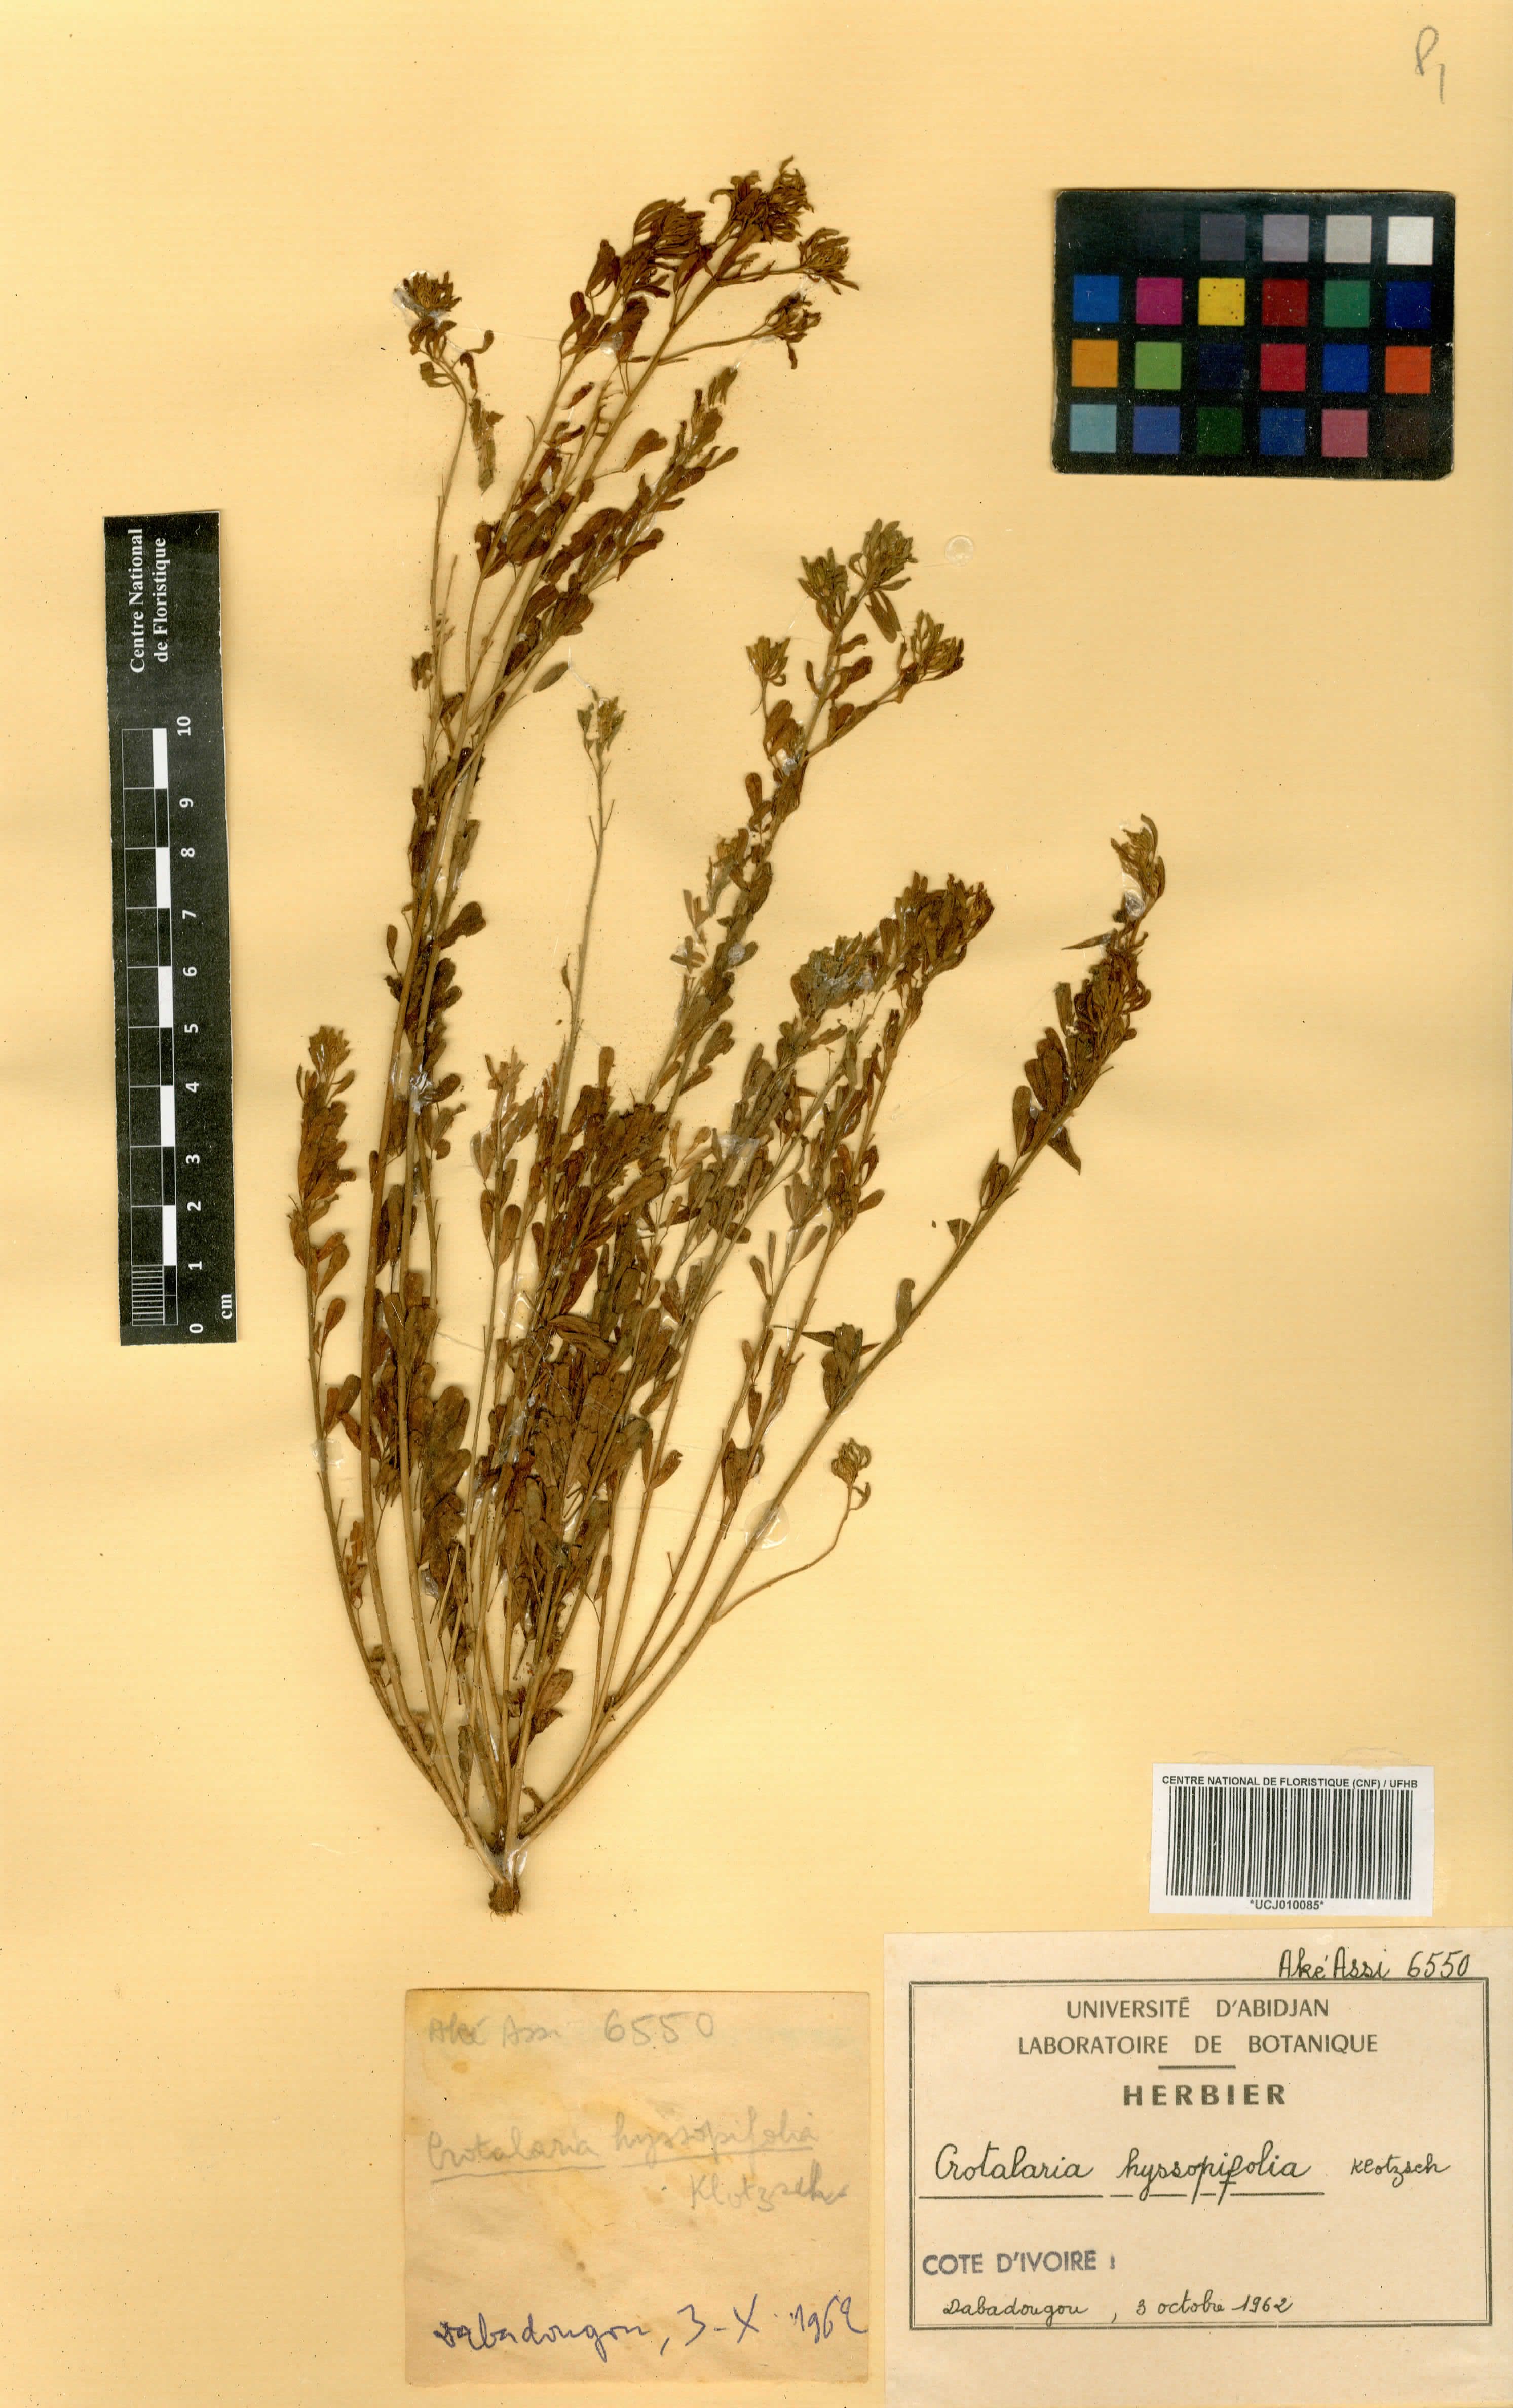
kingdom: Plantae
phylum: Tracheophyta
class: Magnoliopsida
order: Fabales
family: Fabaceae
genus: Crotalaria
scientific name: Crotalaria hyssopifolia
